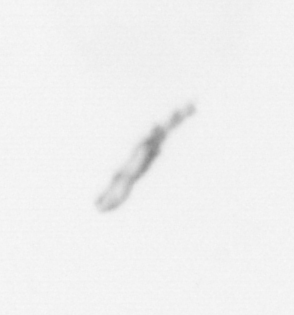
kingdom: Chromista
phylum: Ochrophyta
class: Bacillariophyceae
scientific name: Bacillariophyceae
